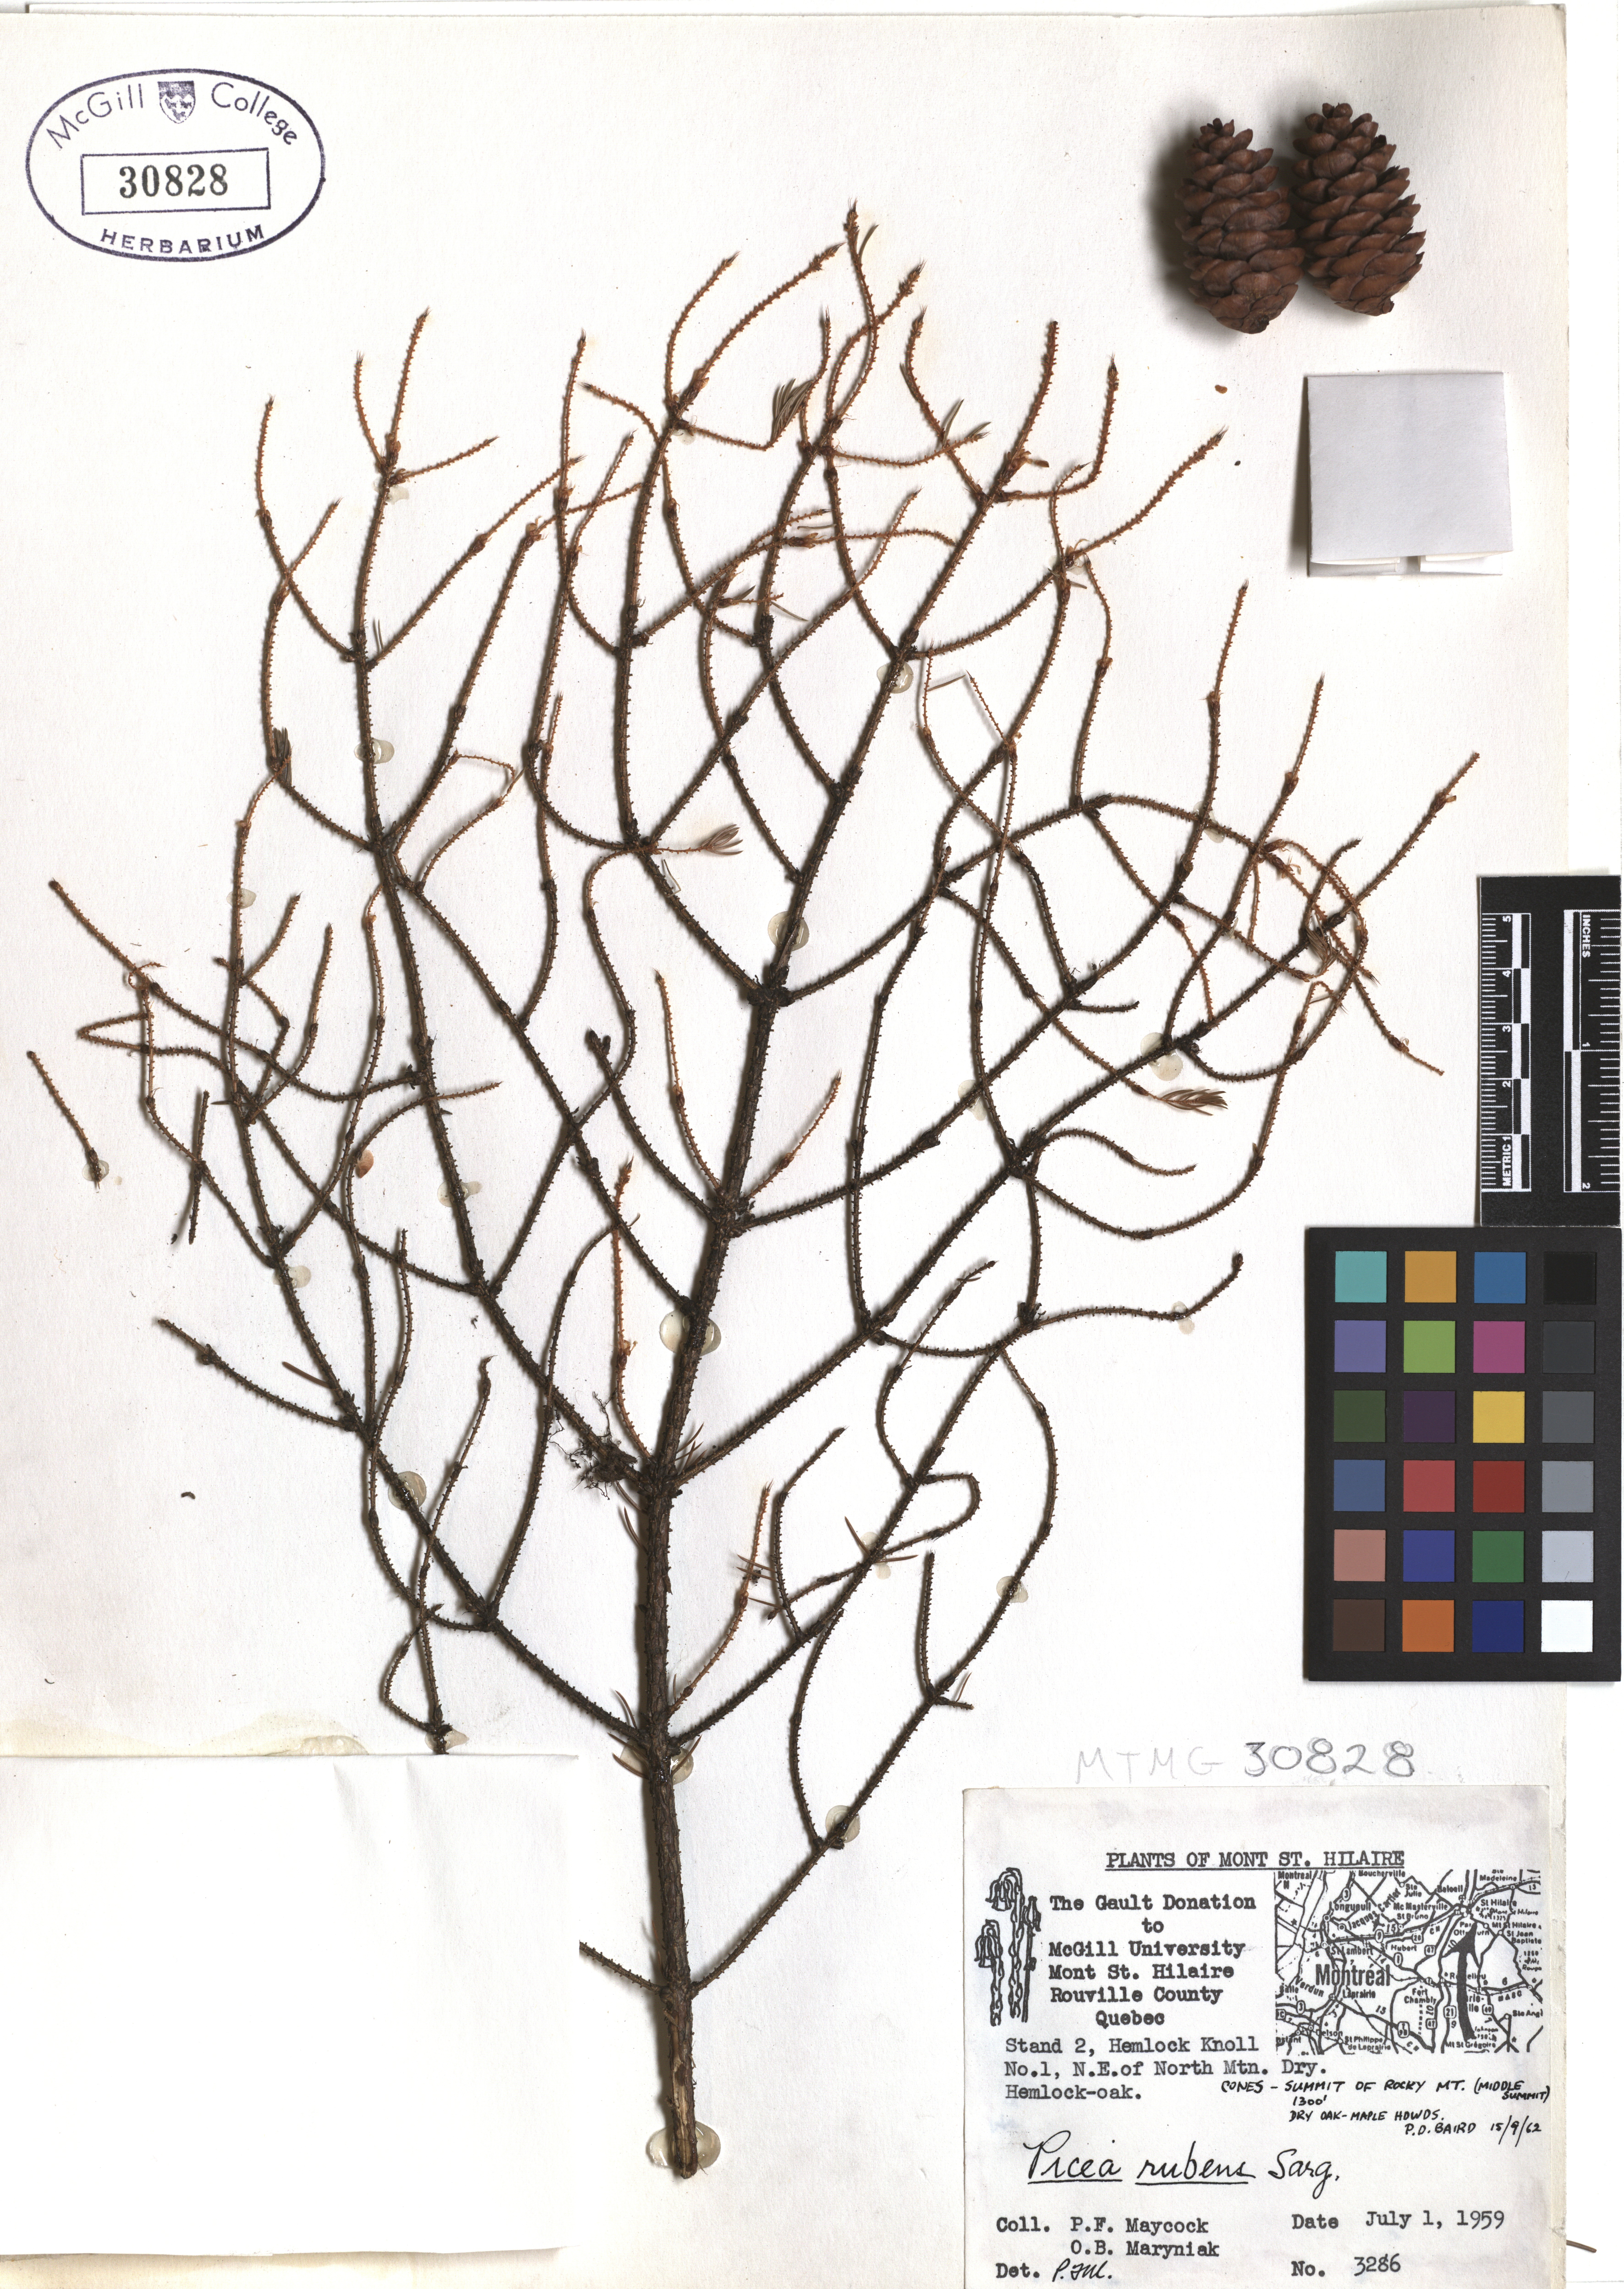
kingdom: Plantae
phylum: Tracheophyta
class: Pinopsida
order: Pinales
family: Pinaceae
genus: Picea
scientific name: Picea rubens
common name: Red spruce
